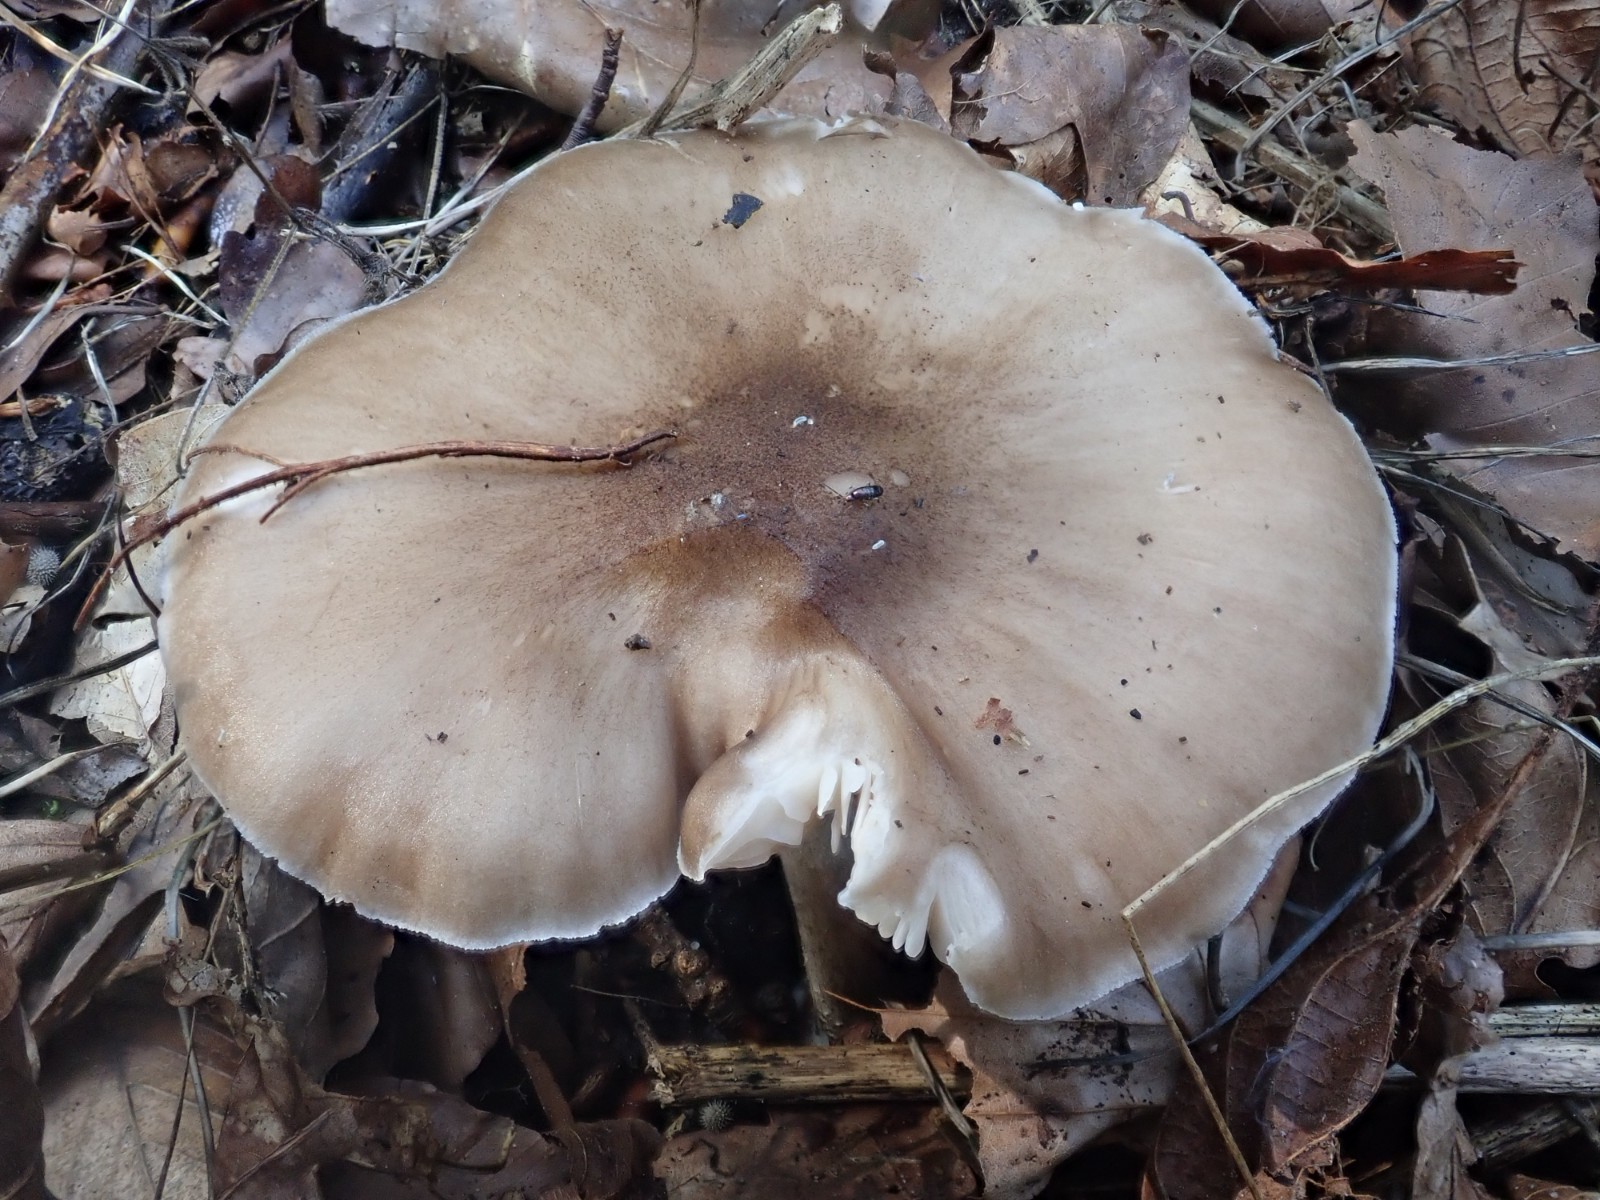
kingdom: Fungi
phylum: Basidiomycota
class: Agaricomycetes
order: Agaricales
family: Pluteaceae
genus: Pluteus
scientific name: Pluteus cervinus
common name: sodfarvet skærmhat
